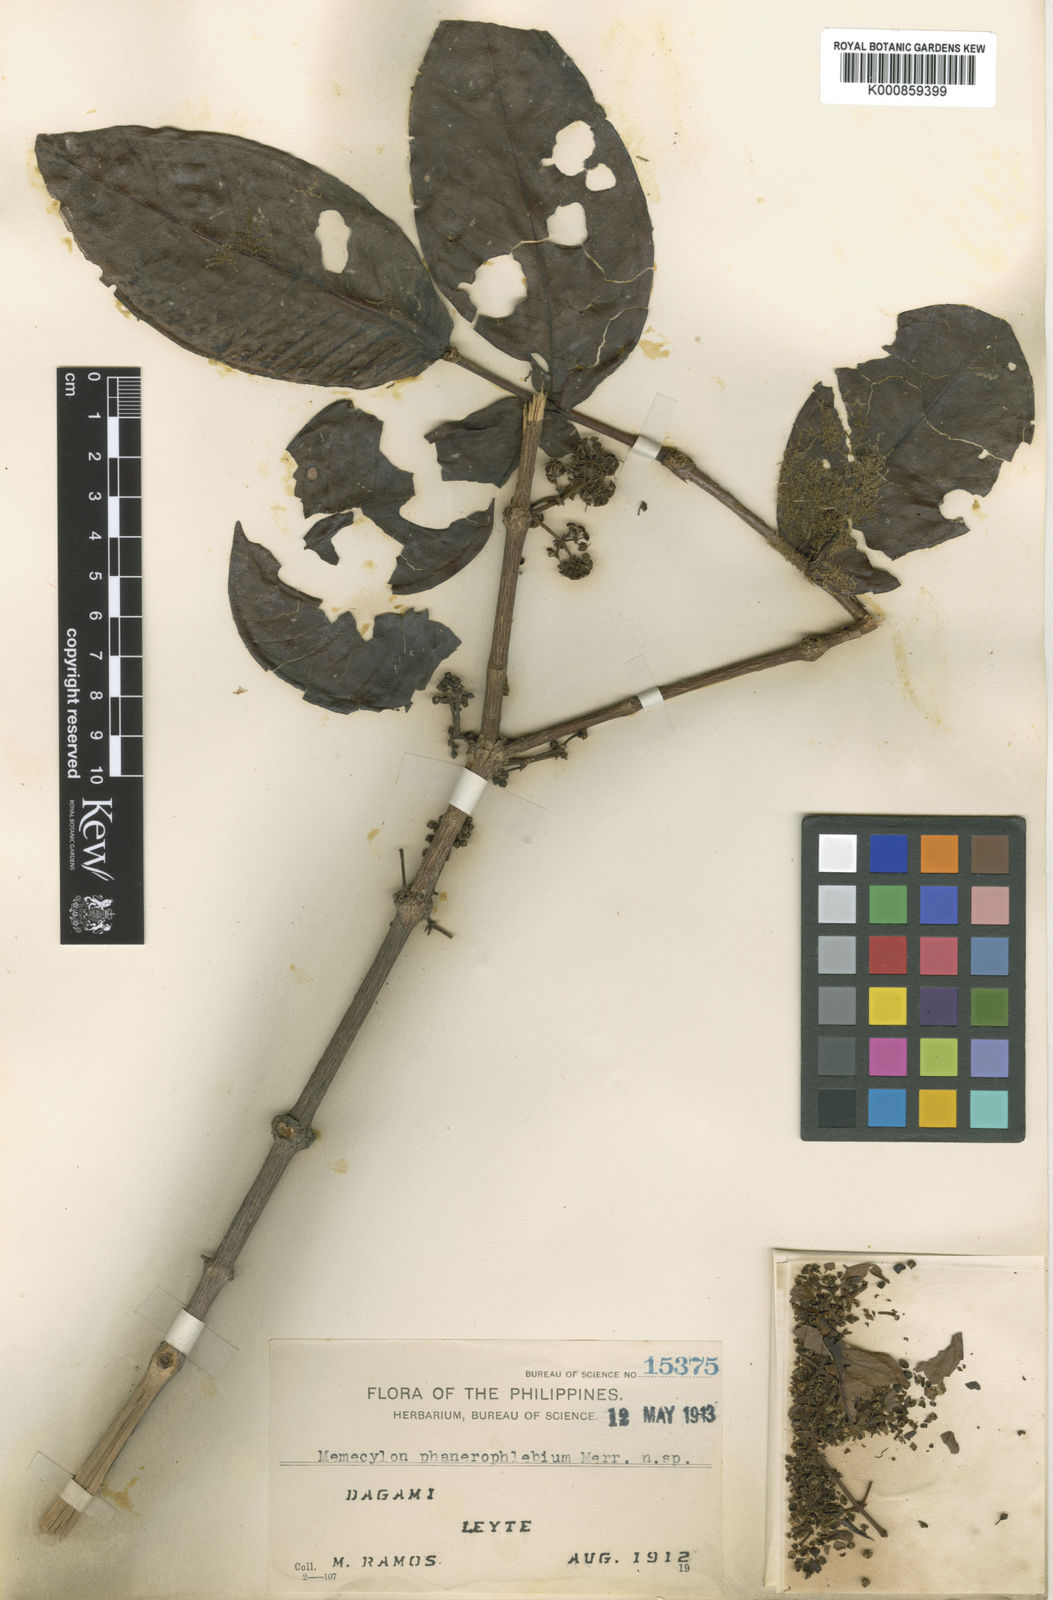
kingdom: Plantae
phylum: Tracheophyta
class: Magnoliopsida
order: Myrtales
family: Melastomataceae
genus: Memecylon
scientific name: Memecylon pteropus
